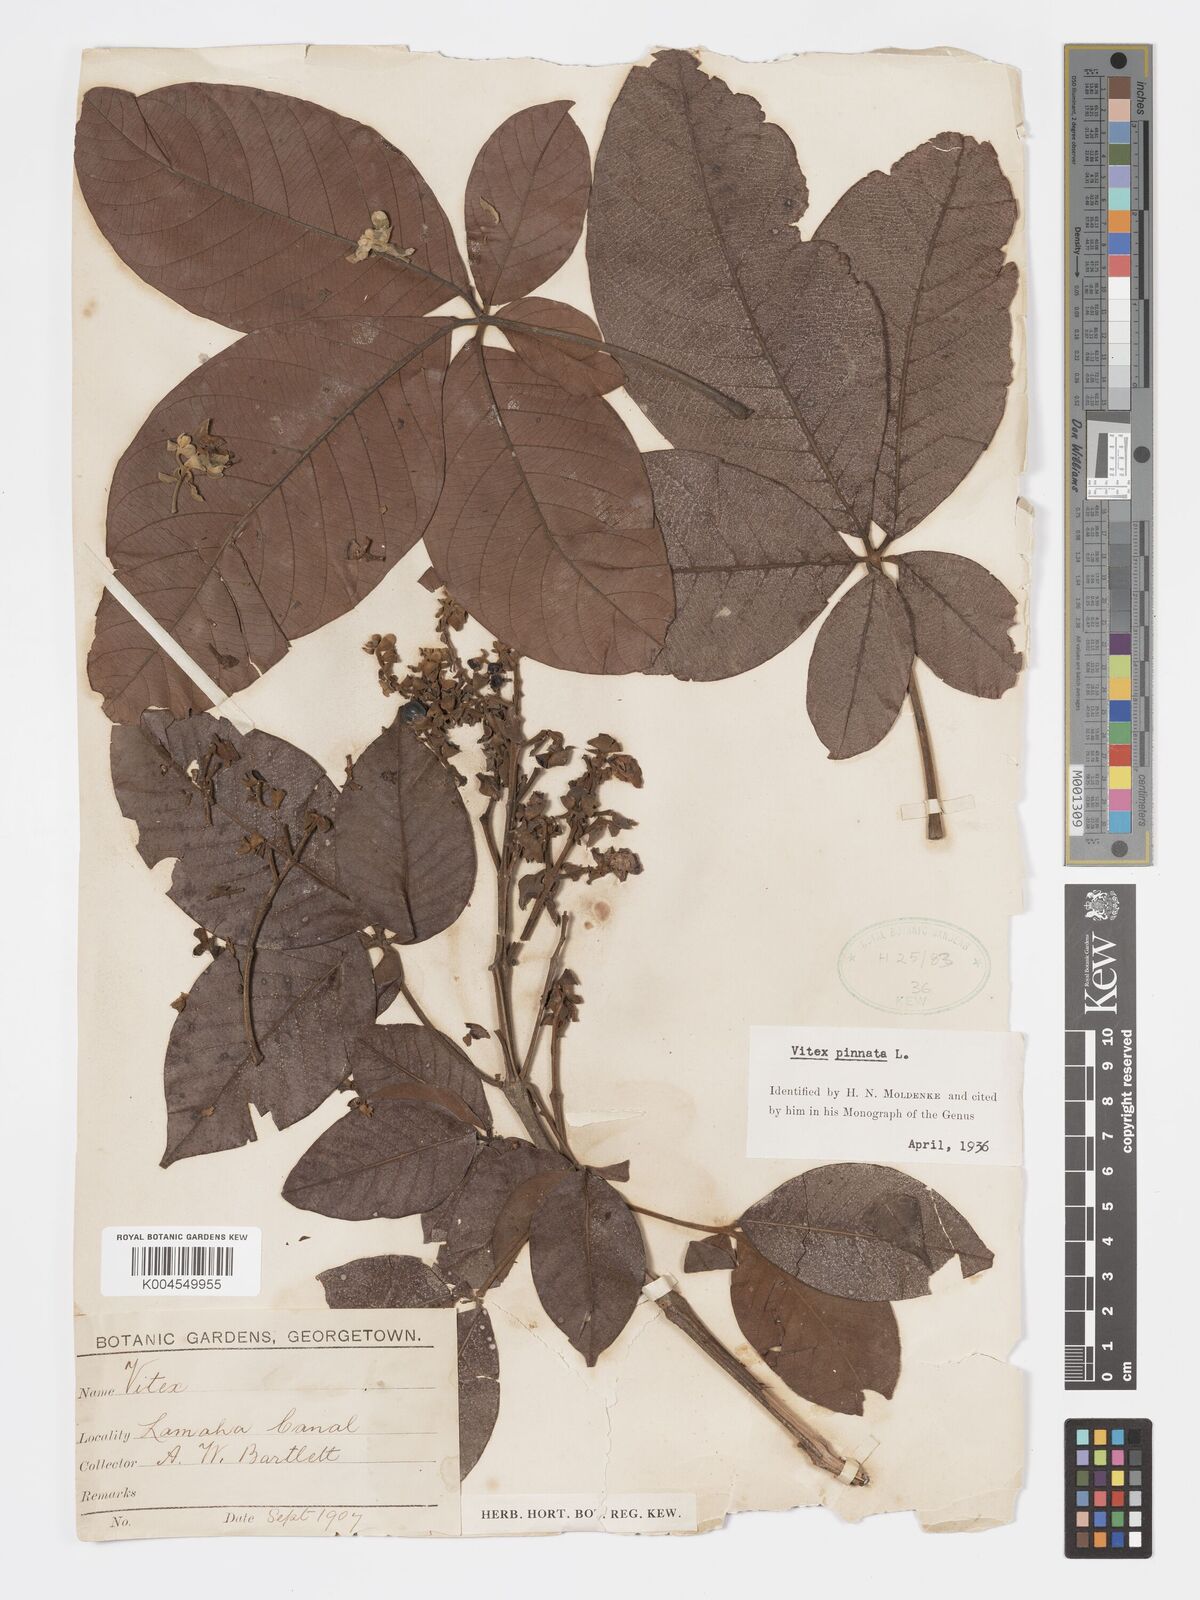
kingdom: Plantae
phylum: Tracheophyta
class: Magnoliopsida
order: Lamiales
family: Lamiaceae
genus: Vitex
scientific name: Vitex pinnata
